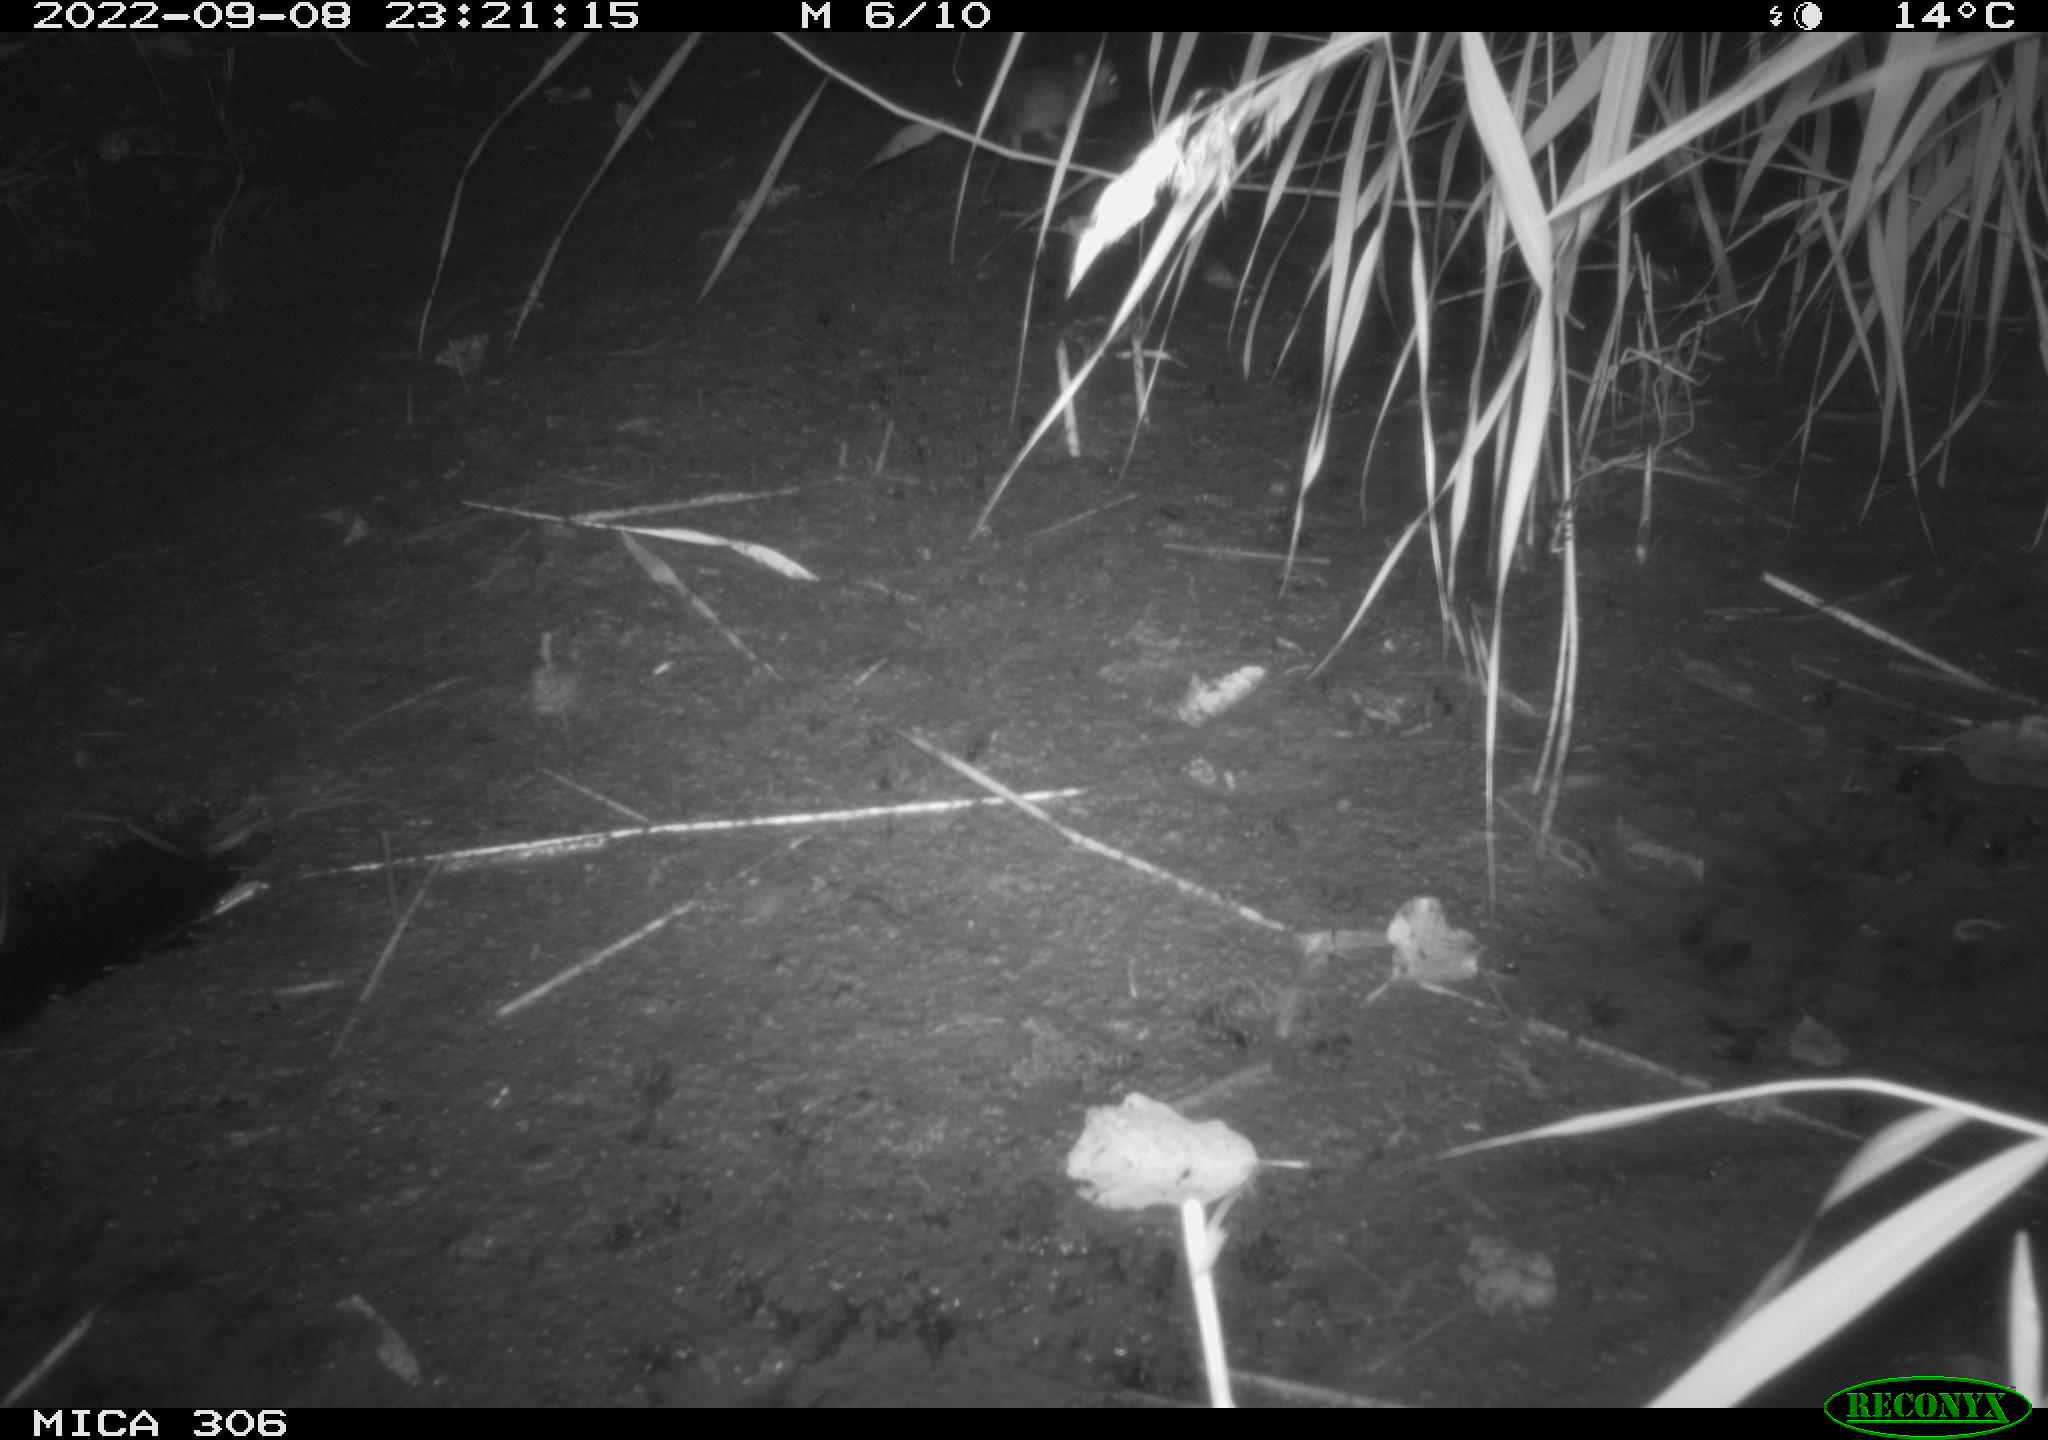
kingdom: Animalia
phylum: Chordata
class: Mammalia
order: Rodentia
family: Muridae
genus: Rattus
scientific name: Rattus norvegicus
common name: Brown rat
